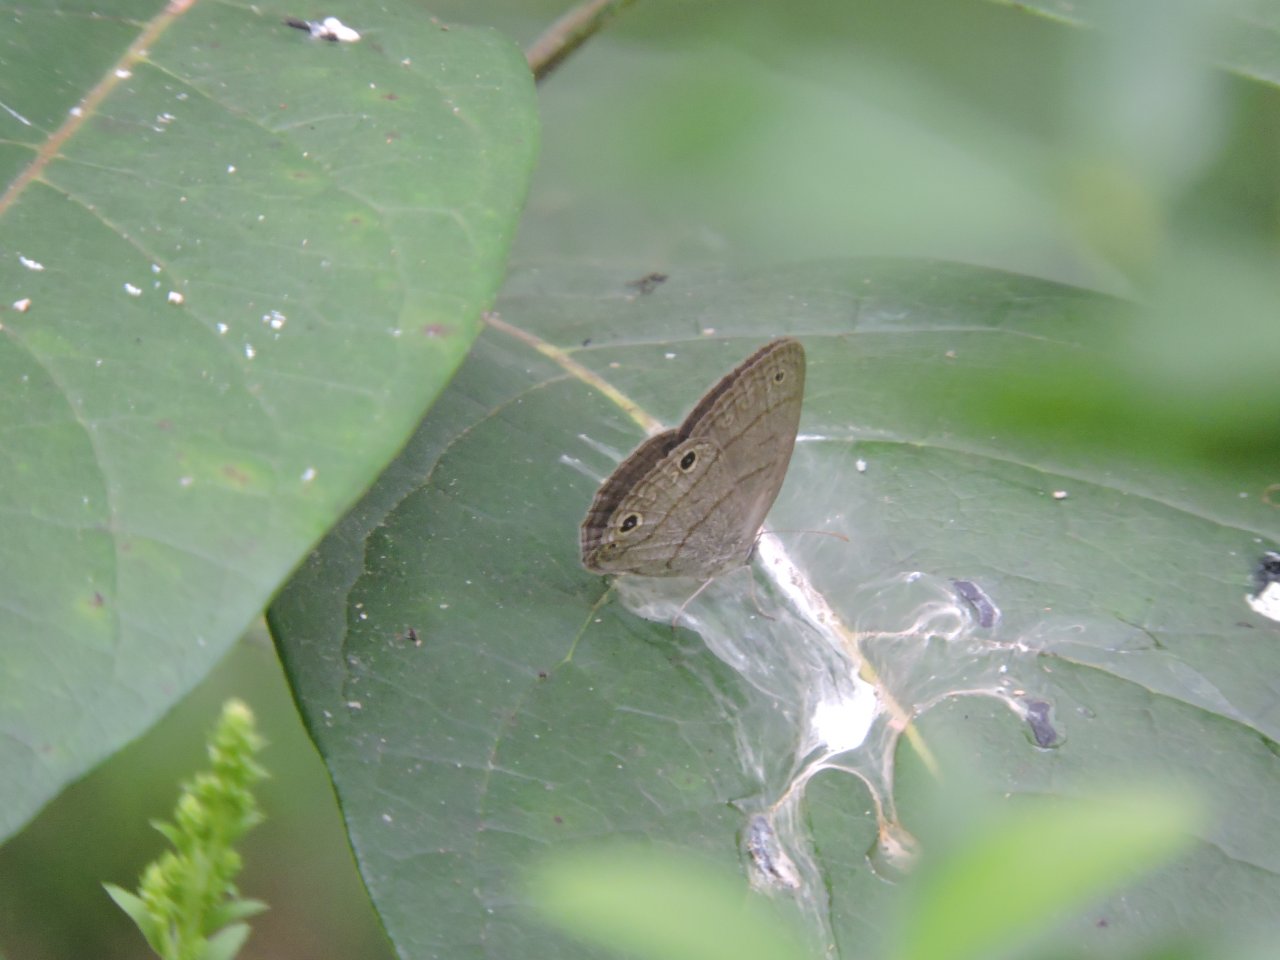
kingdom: Animalia
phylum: Arthropoda
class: Insecta
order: Lepidoptera
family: Nymphalidae
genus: Hermeuptychia
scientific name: Hermeuptychia
